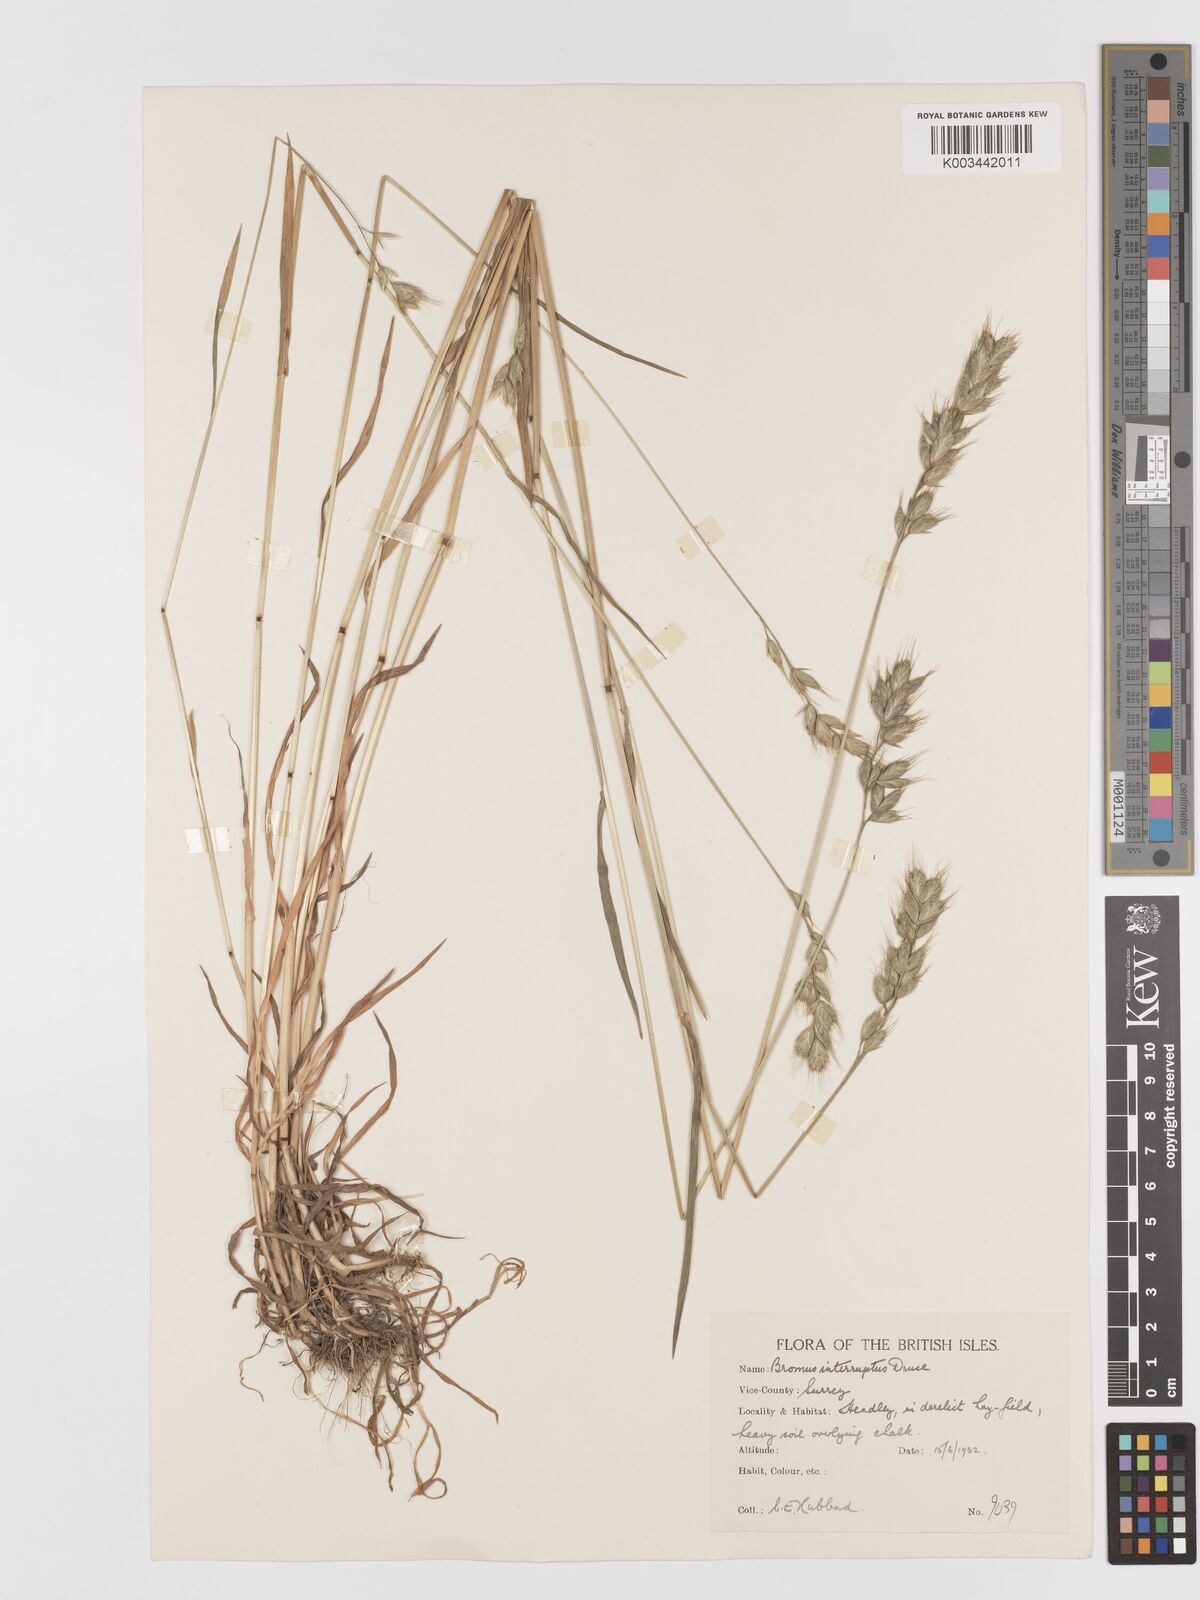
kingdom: Plantae
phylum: Tracheophyta
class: Liliopsida
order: Poales
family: Poaceae
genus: Bromus
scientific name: Bromus interruptus
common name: Interrupted brome
